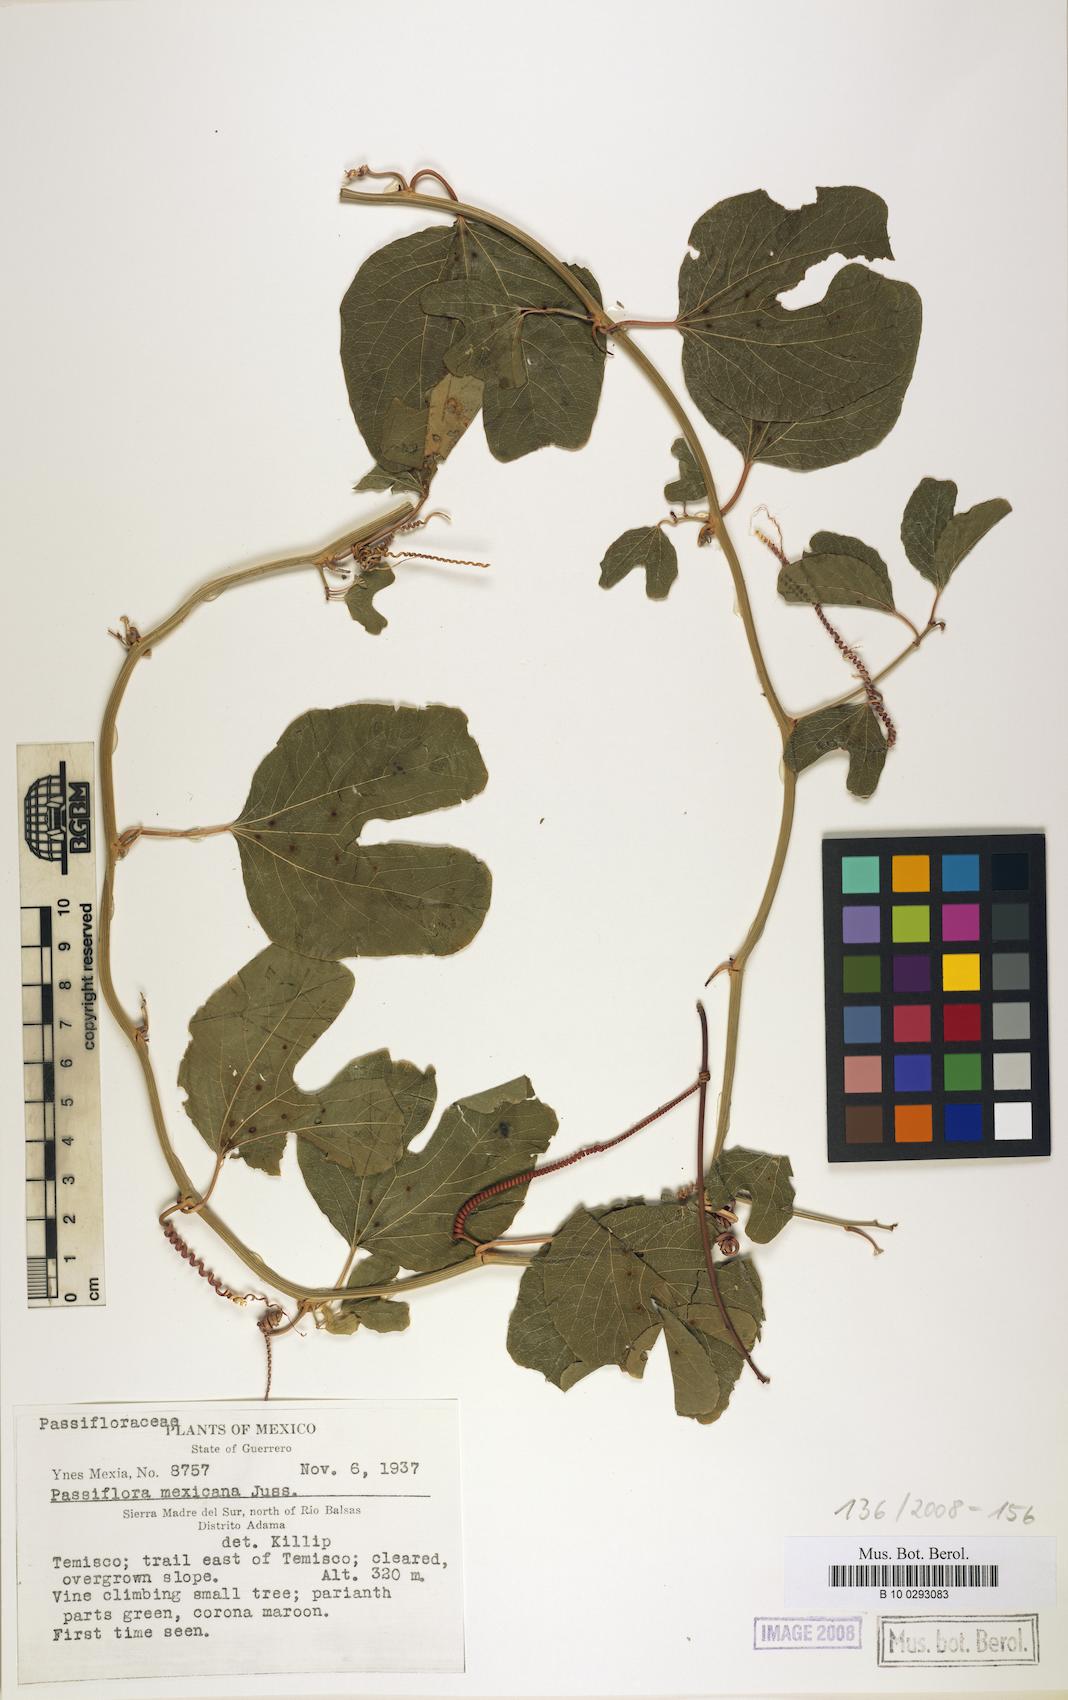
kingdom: Plantae
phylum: Tracheophyta
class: Magnoliopsida
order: Malpighiales
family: Passifloraceae
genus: Passiflora
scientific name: Passiflora mexicana
